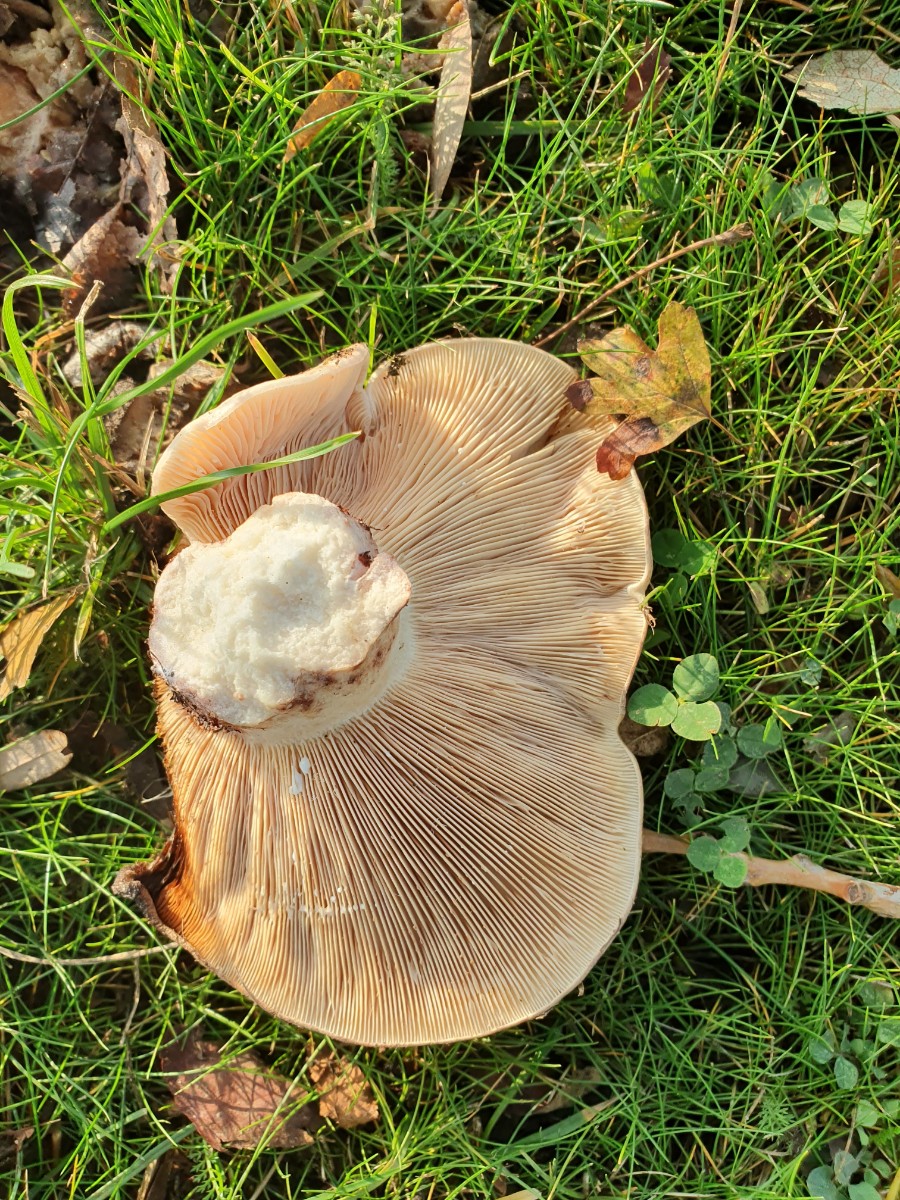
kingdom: Fungi
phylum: Basidiomycota
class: Agaricomycetes
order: Russulales
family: Russulaceae
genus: Lactarius
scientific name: Lactarius controversus
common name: rosabladet mælkehat
